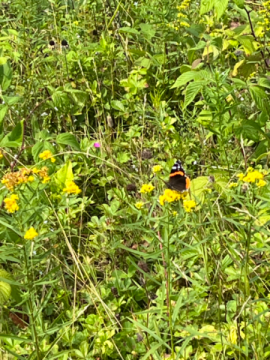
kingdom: Animalia
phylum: Arthropoda
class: Insecta
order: Lepidoptera
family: Nymphalidae
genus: Vanessa
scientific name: Vanessa atalanta
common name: Red Admiral
